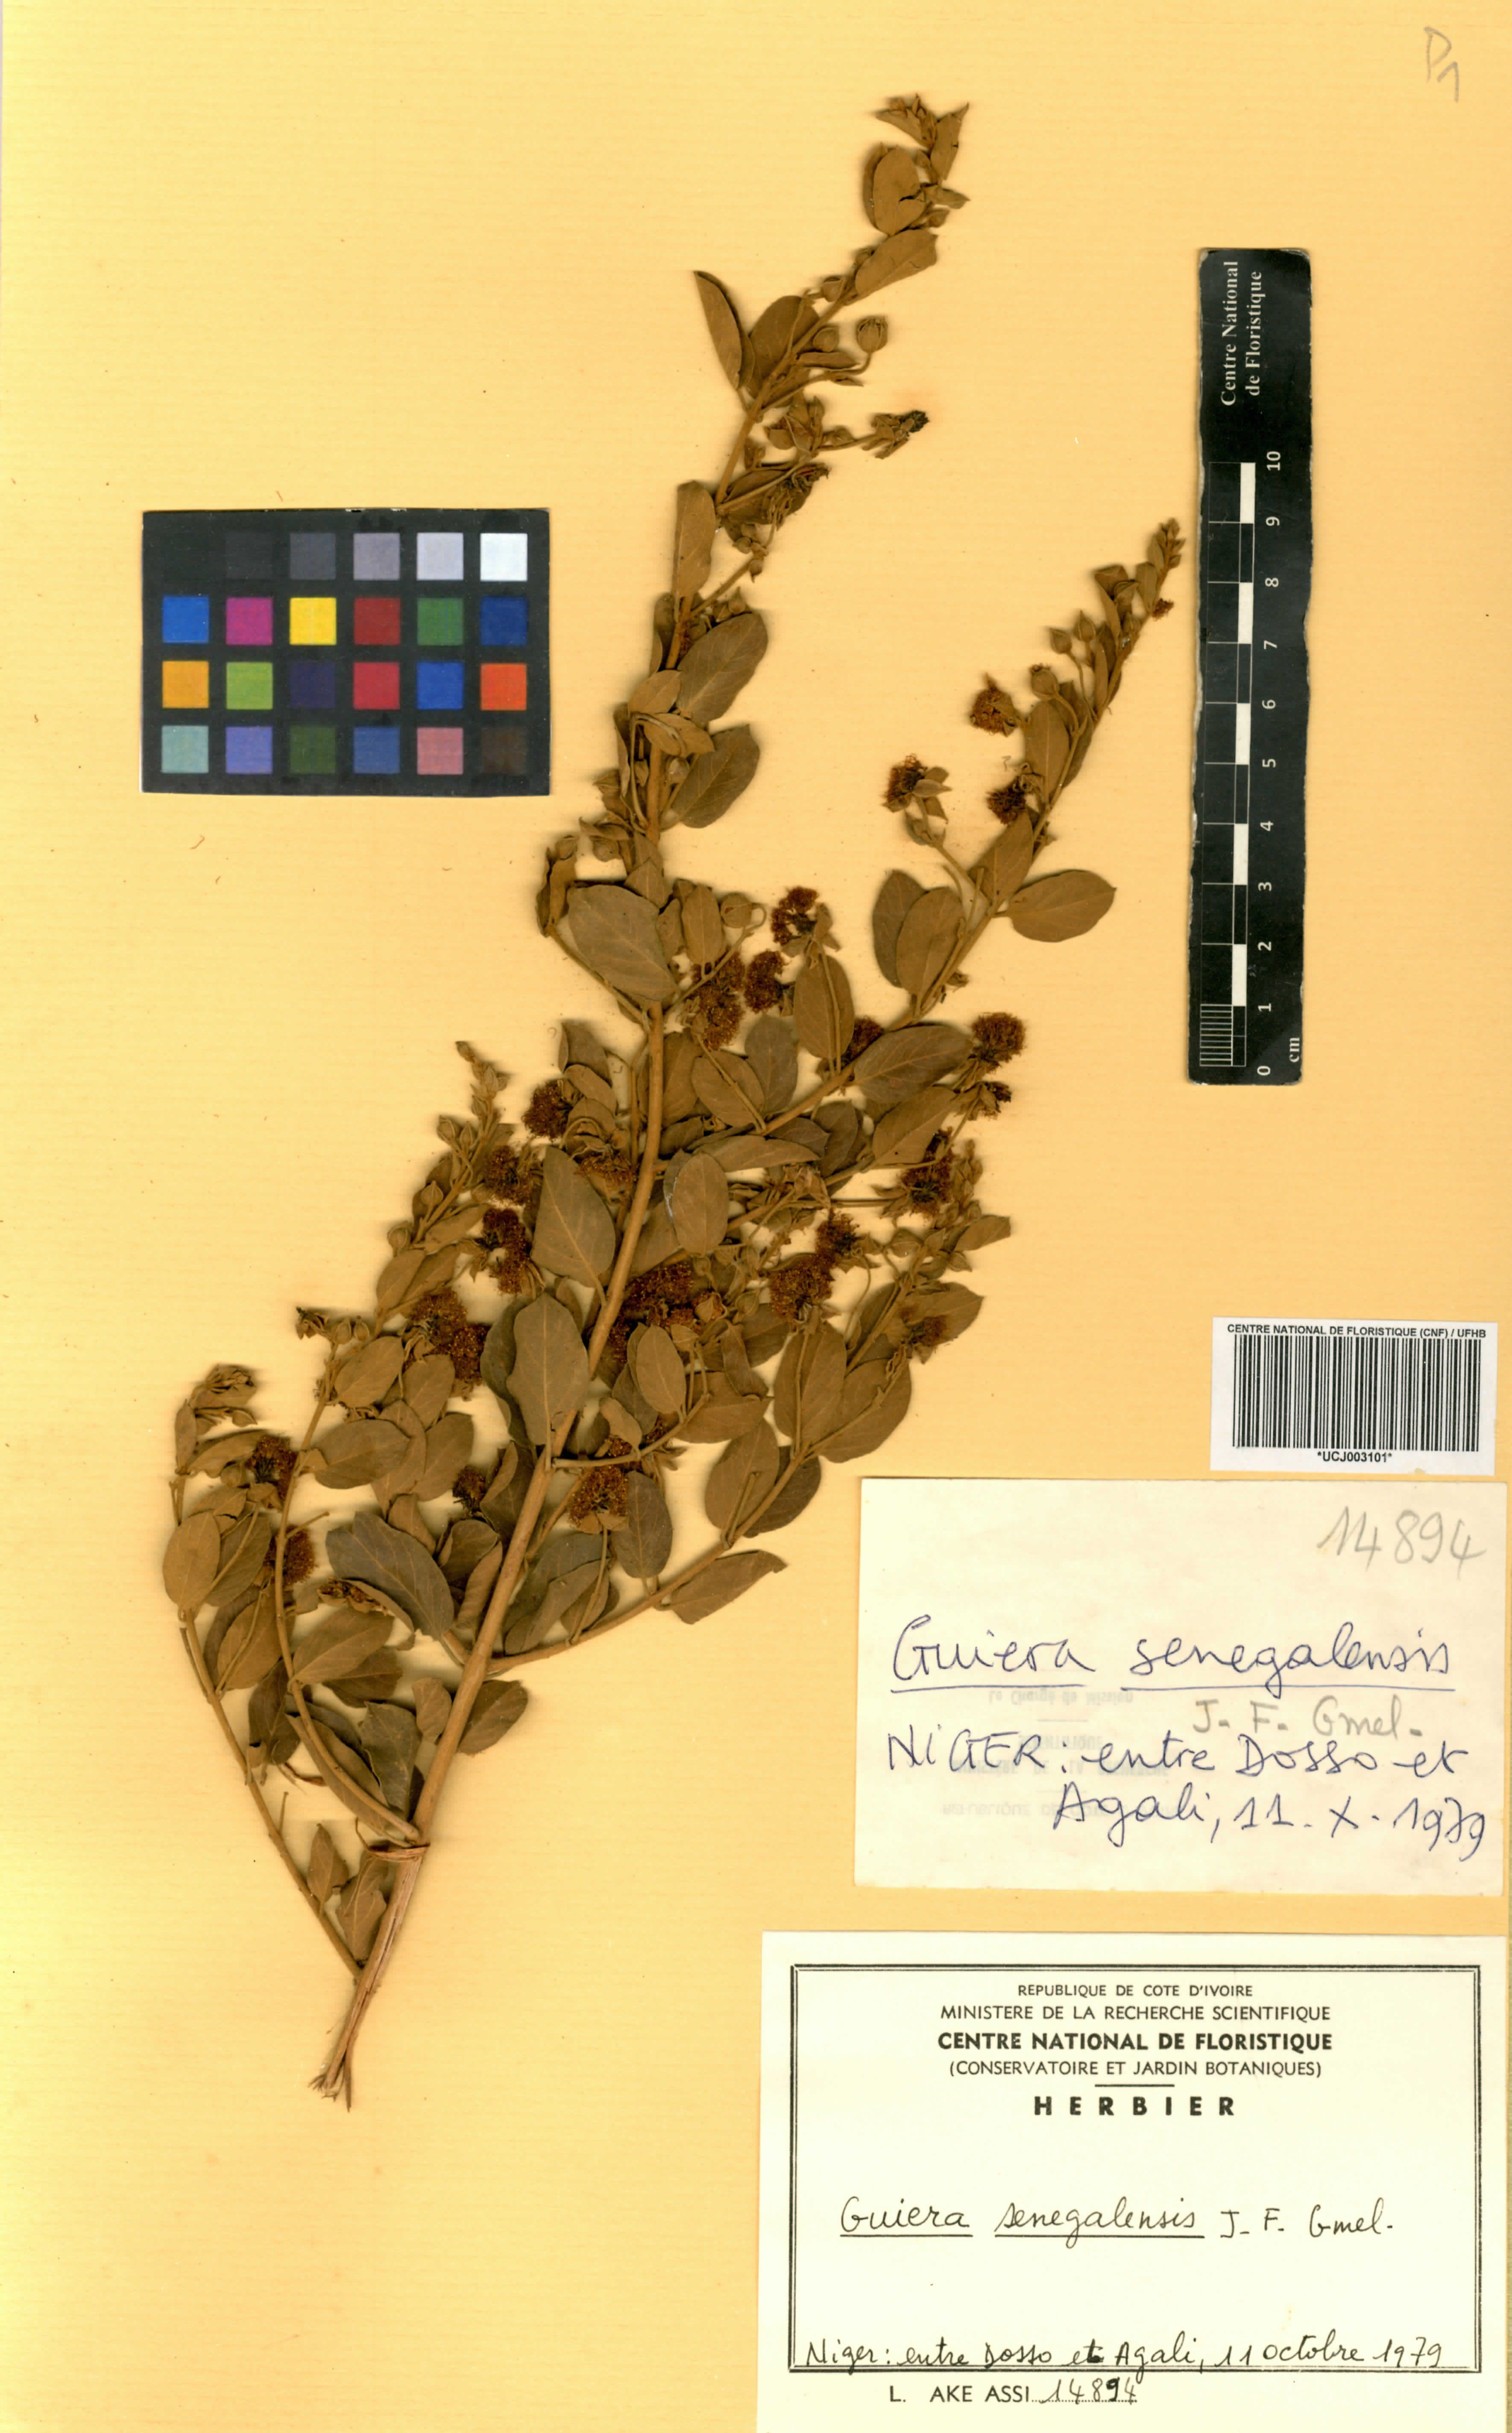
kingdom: Plantae
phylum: Tracheophyta
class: Magnoliopsida
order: Myrtales
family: Combretaceae
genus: Guiera
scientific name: Guiera senegalensis
